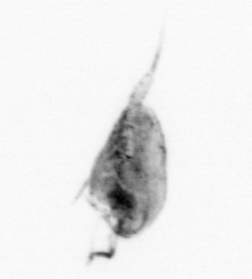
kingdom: Animalia
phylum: Arthropoda
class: Copepoda
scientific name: Copepoda
